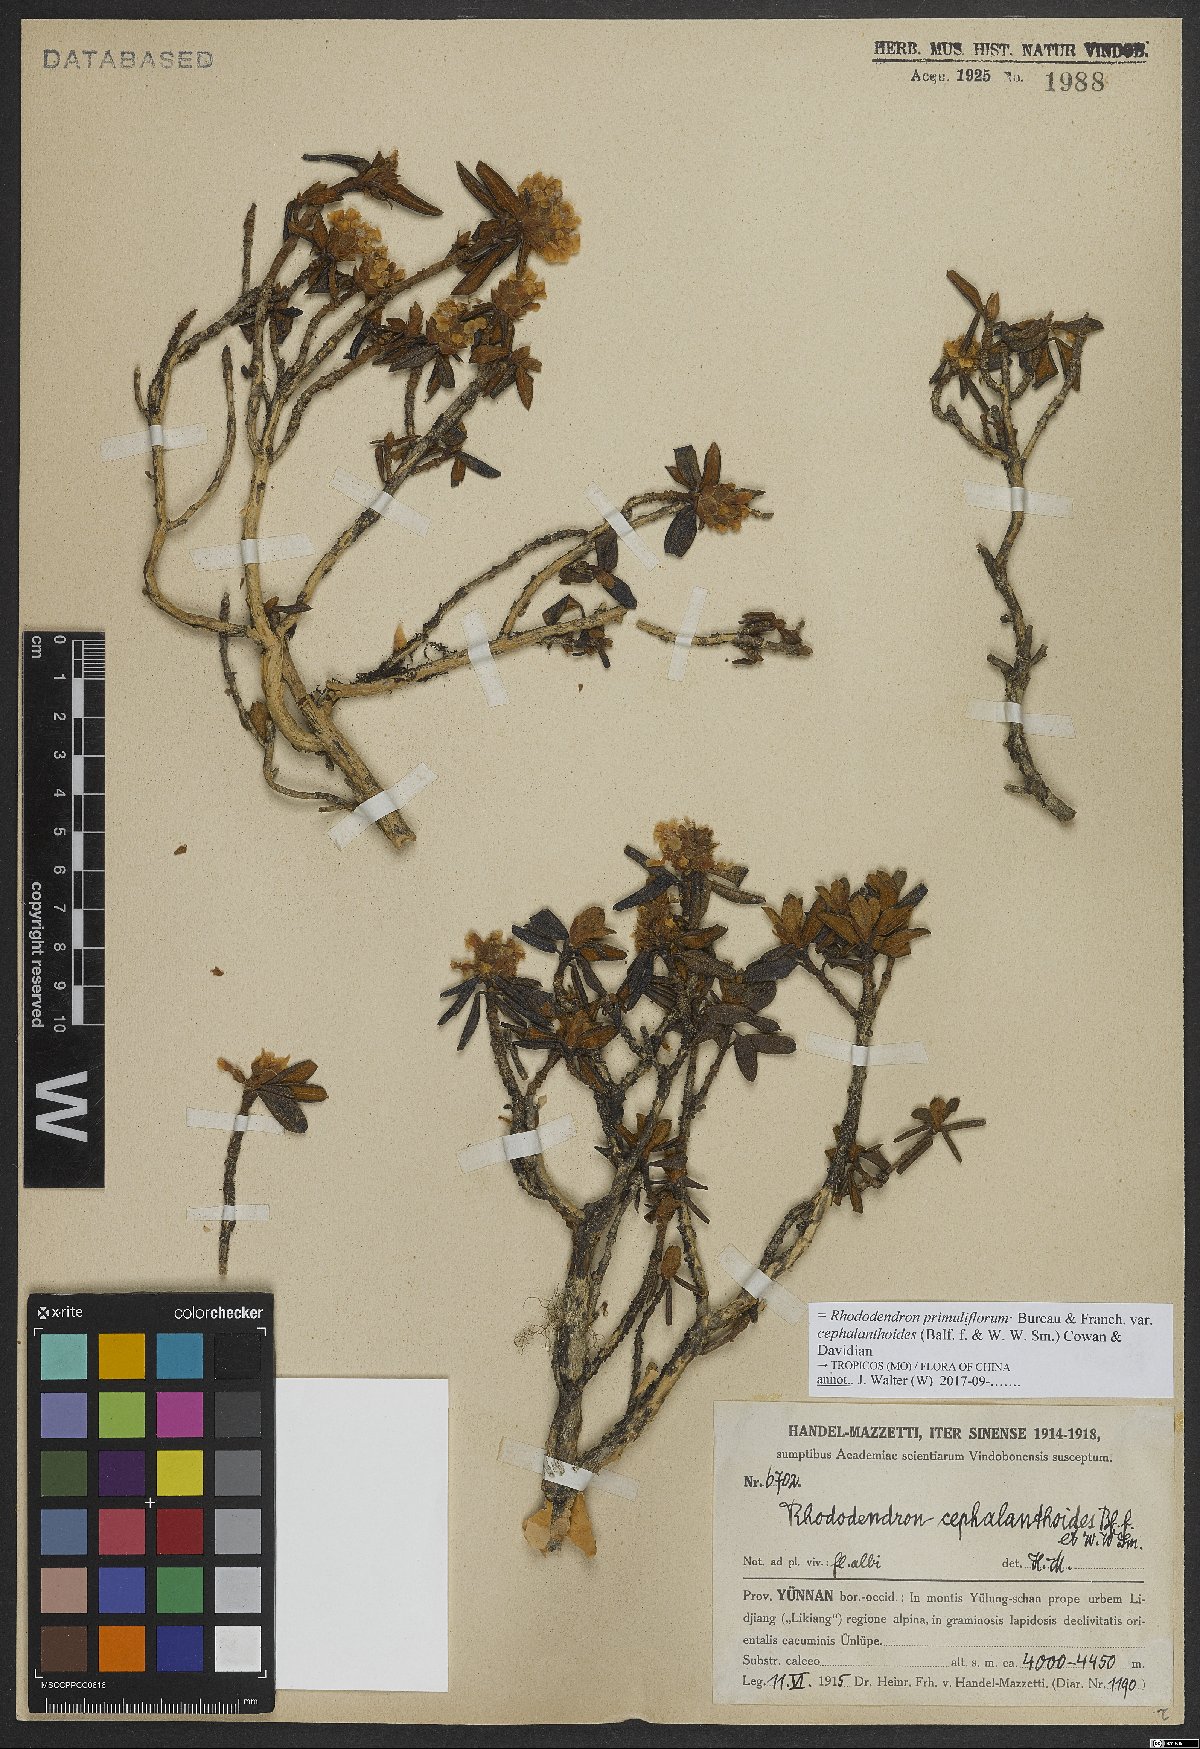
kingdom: Plantae
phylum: Tracheophyta
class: Magnoliopsida
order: Ericales
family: Ericaceae
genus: Rhododendron
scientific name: Rhododendron primuliflorum
